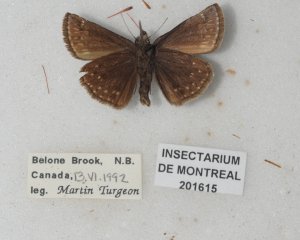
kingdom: Animalia
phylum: Arthropoda
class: Insecta
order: Lepidoptera
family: Hesperiidae
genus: Erynnis
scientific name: Erynnis icelus
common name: Dreamy Duskywing
